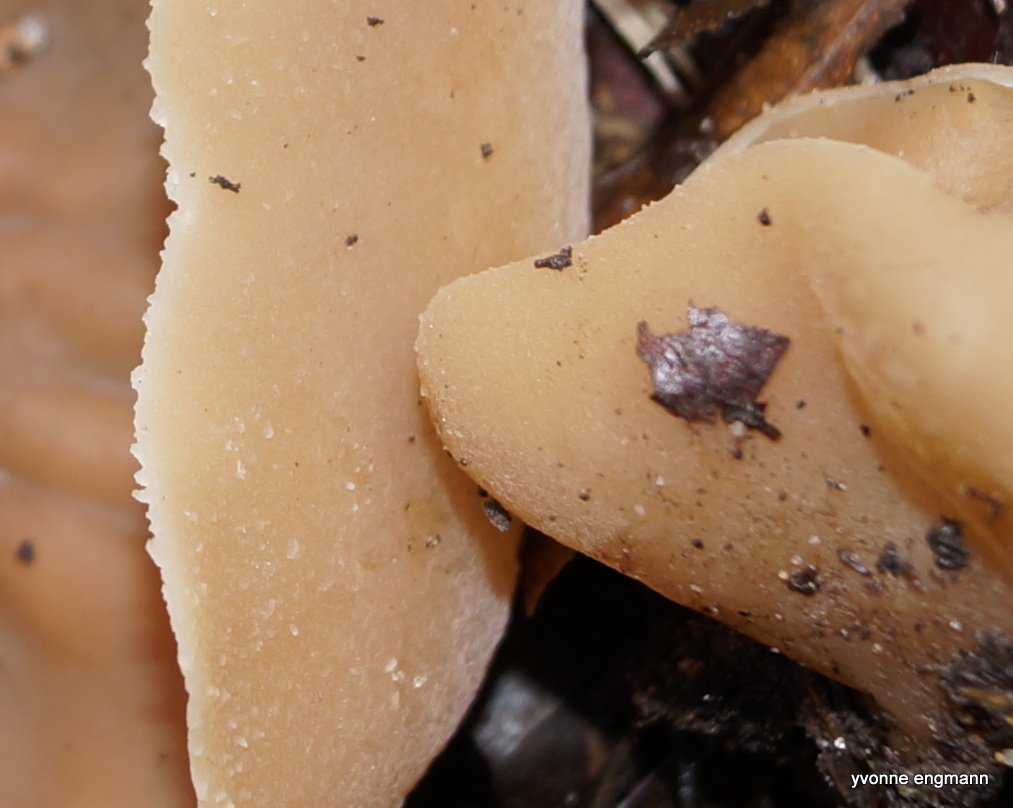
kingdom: Fungi
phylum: Ascomycota
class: Pezizomycetes
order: Pezizales
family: Pezizaceae
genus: Peziza
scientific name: Peziza
